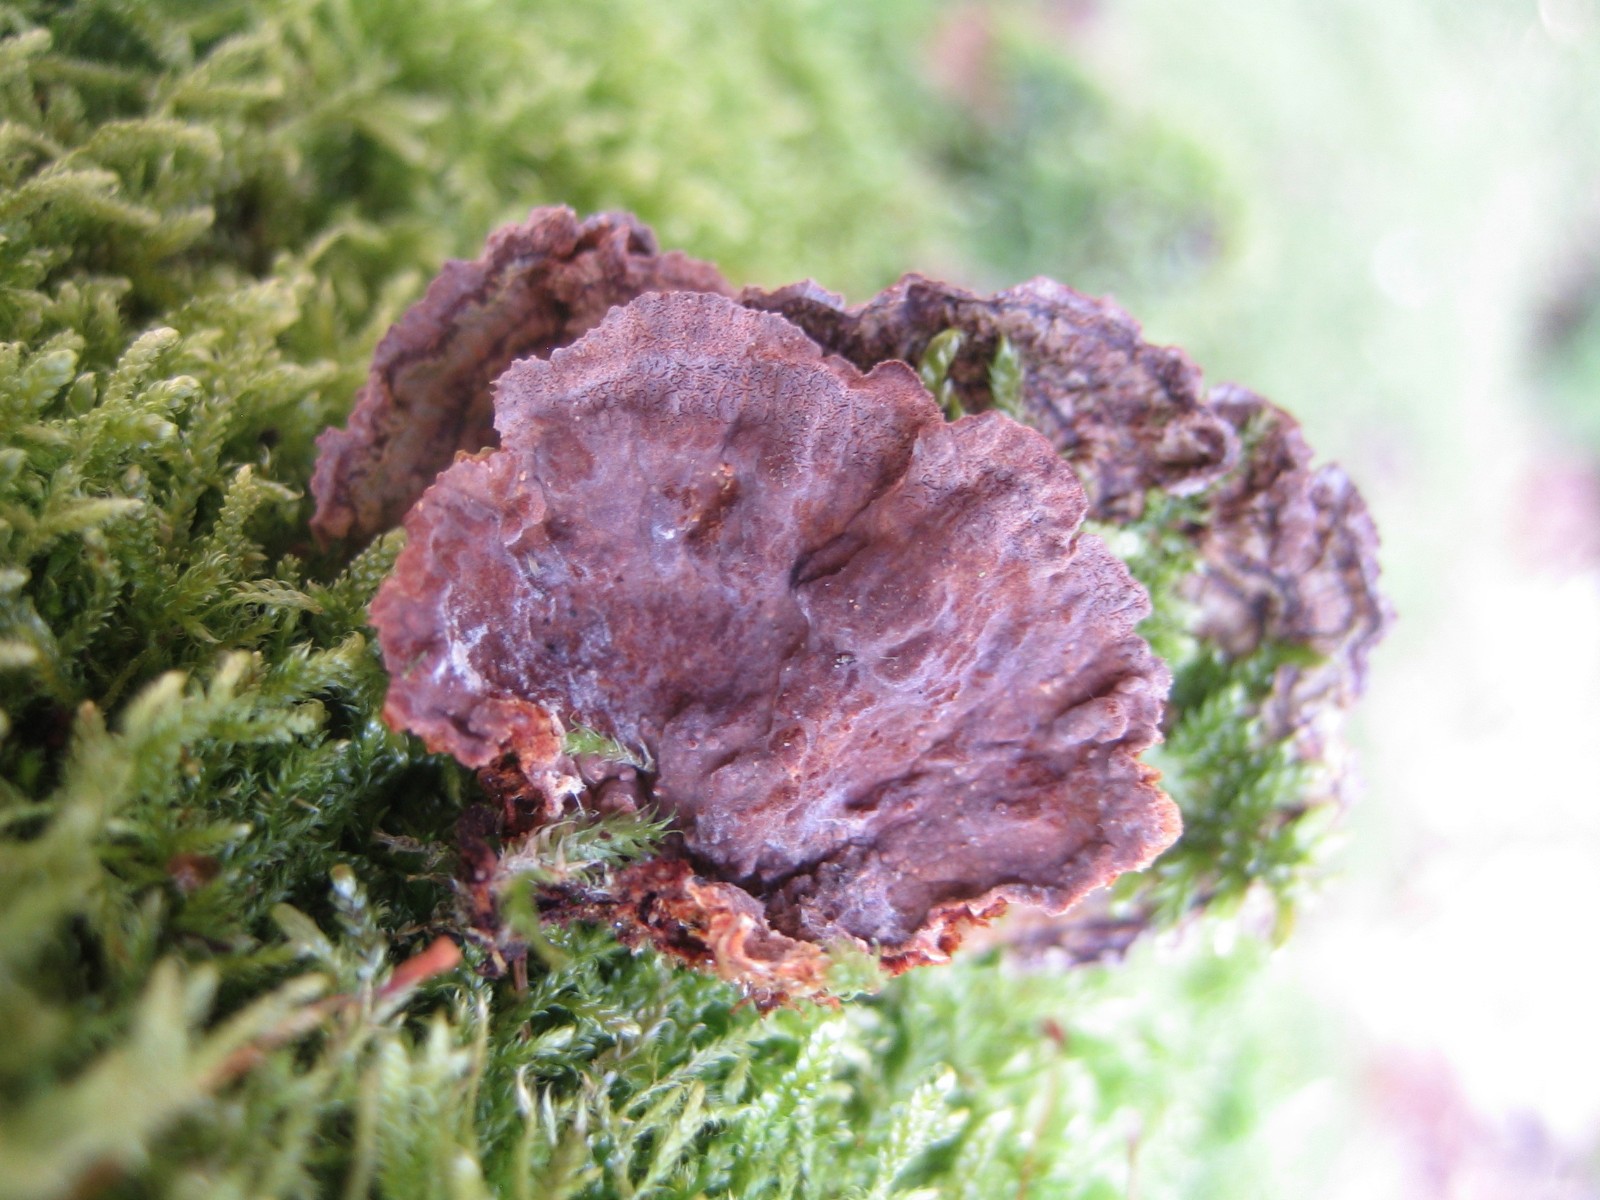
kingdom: Fungi
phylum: Basidiomycota
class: Agaricomycetes
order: Hymenochaetales
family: Hymenochaetaceae
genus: Hydnoporia
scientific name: Hydnoporia tabacina
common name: tobaksbrun ruslædersvamp
